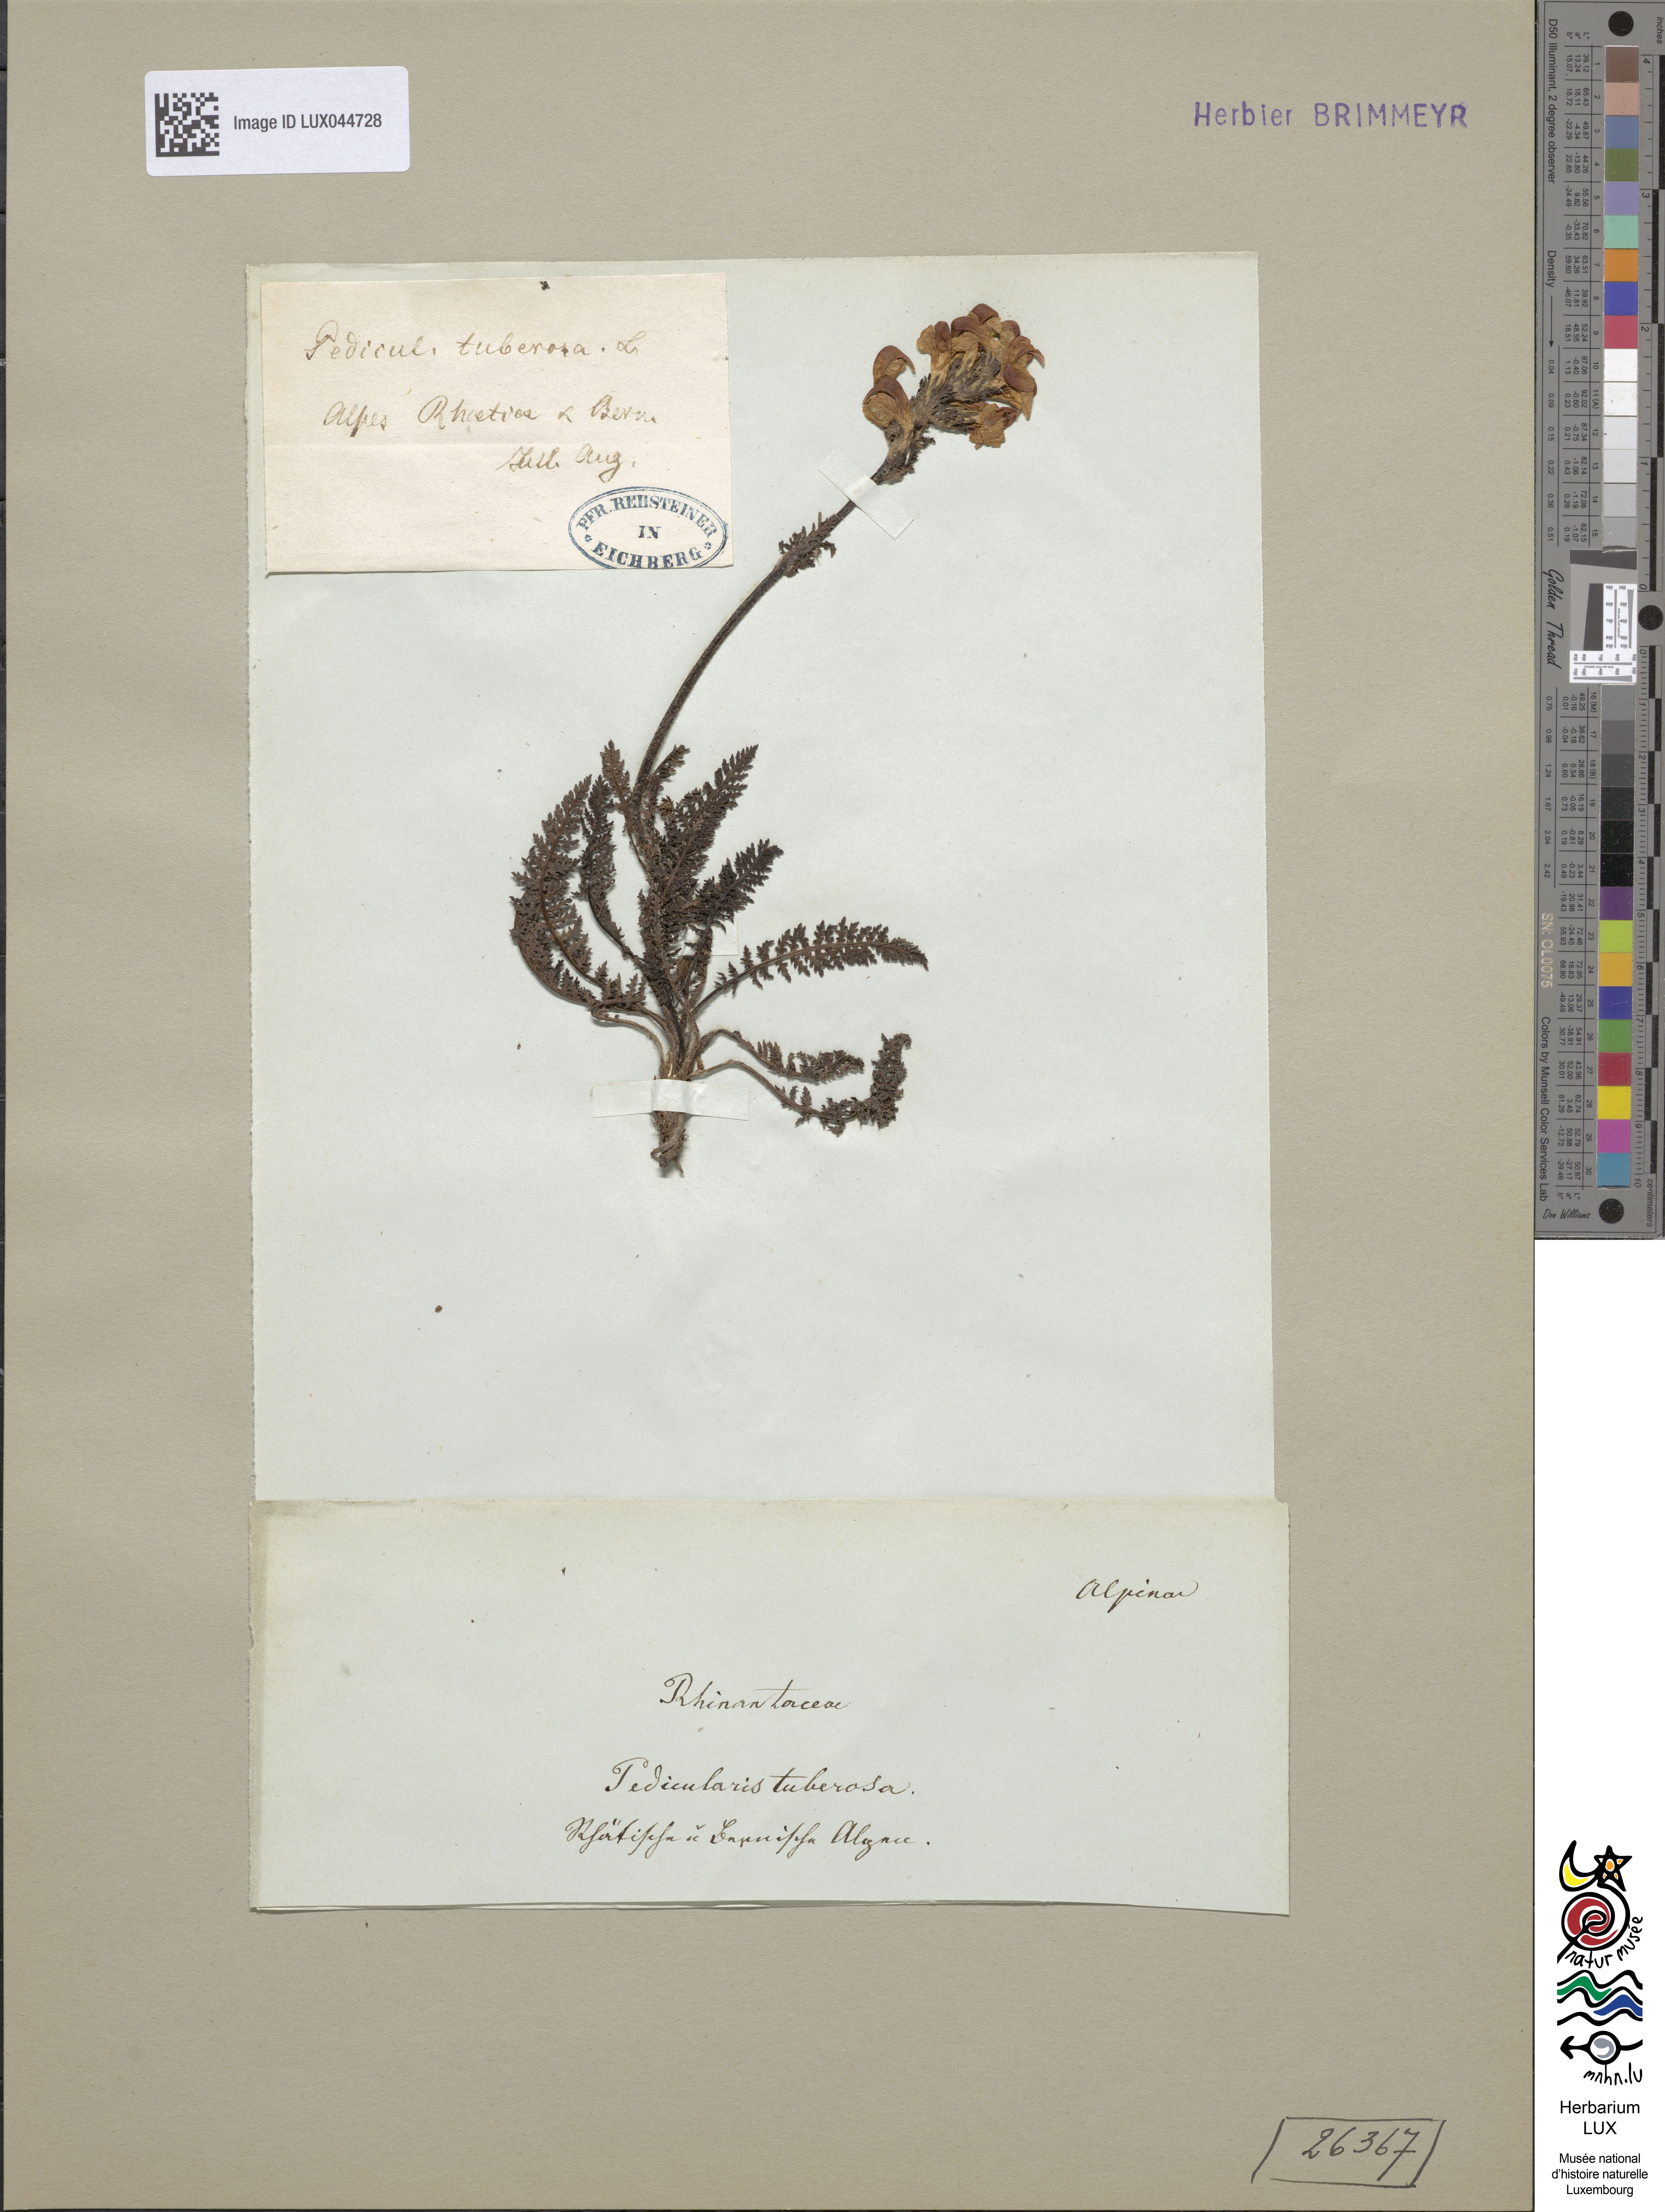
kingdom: Plantae
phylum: Tracheophyta
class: Magnoliopsida
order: Lamiales
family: Orobanchaceae
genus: Pedicularis
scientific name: Pedicularis tuberosa
